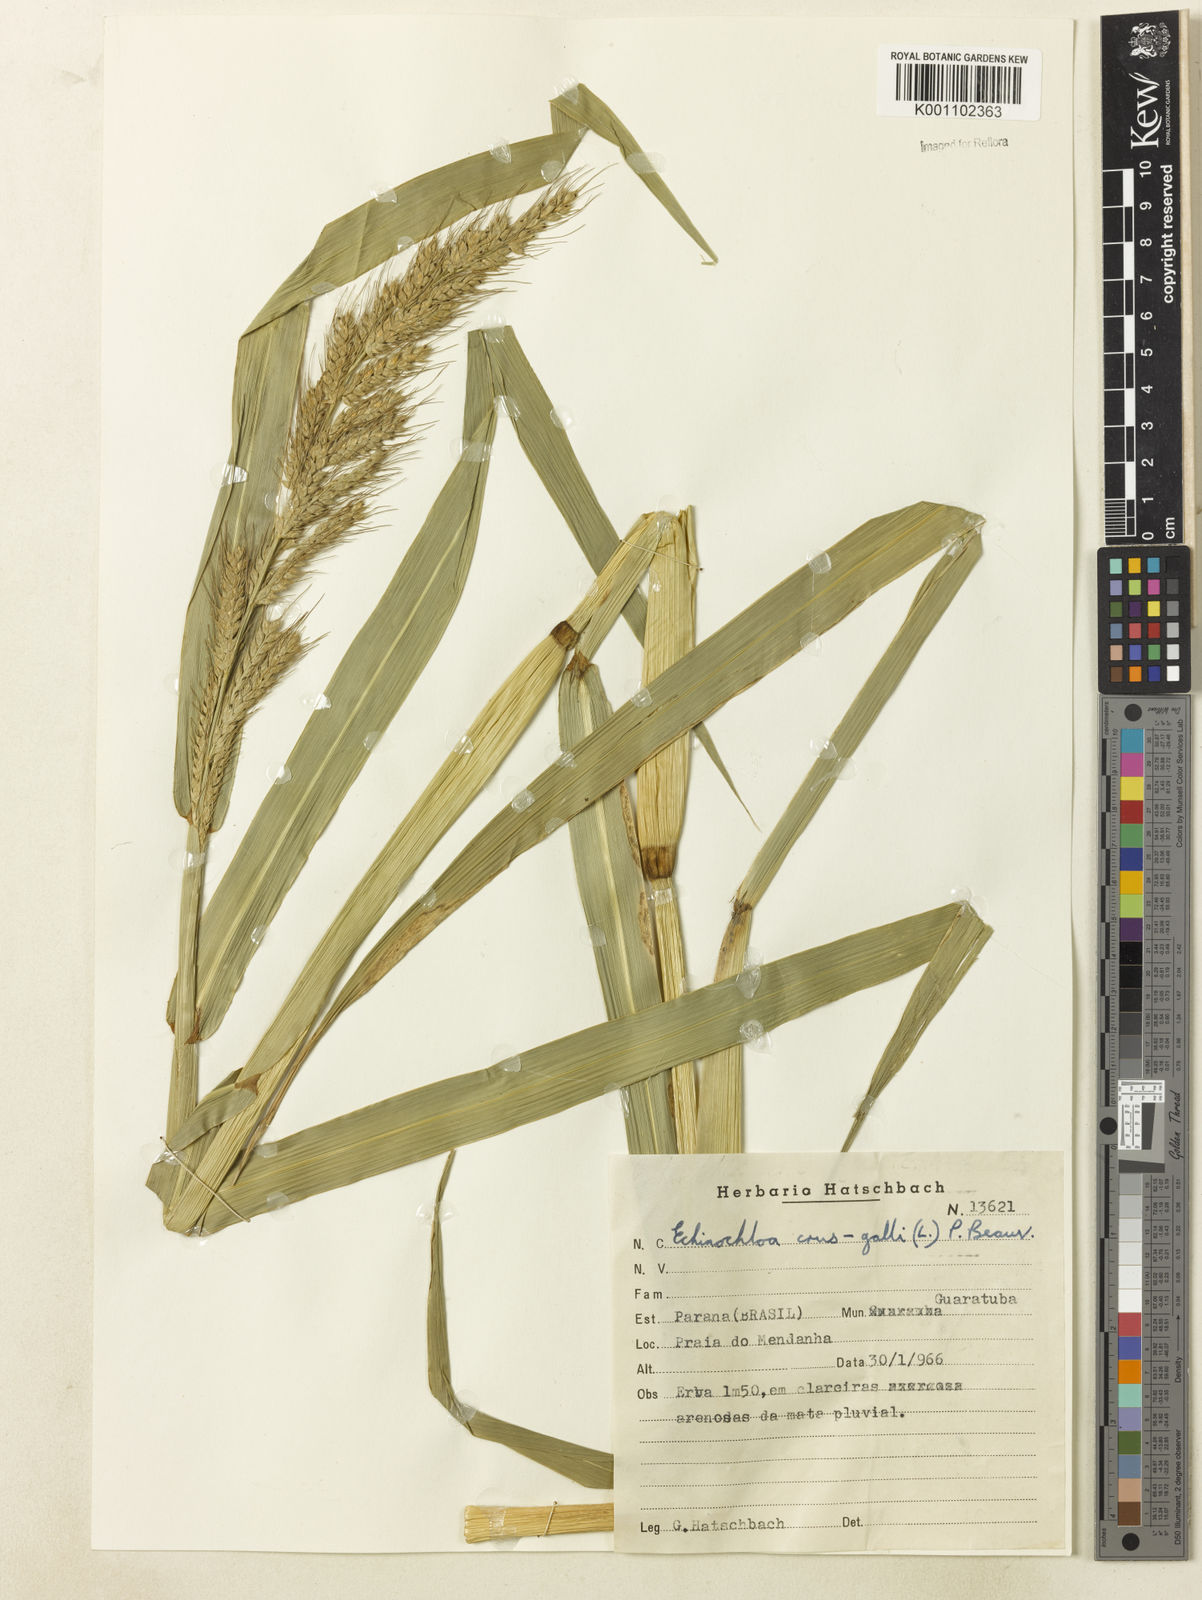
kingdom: Plantae
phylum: Tracheophyta
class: Liliopsida
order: Poales
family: Poaceae
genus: Echinochloa
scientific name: Echinochloa polystachya
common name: Creeping river grass
